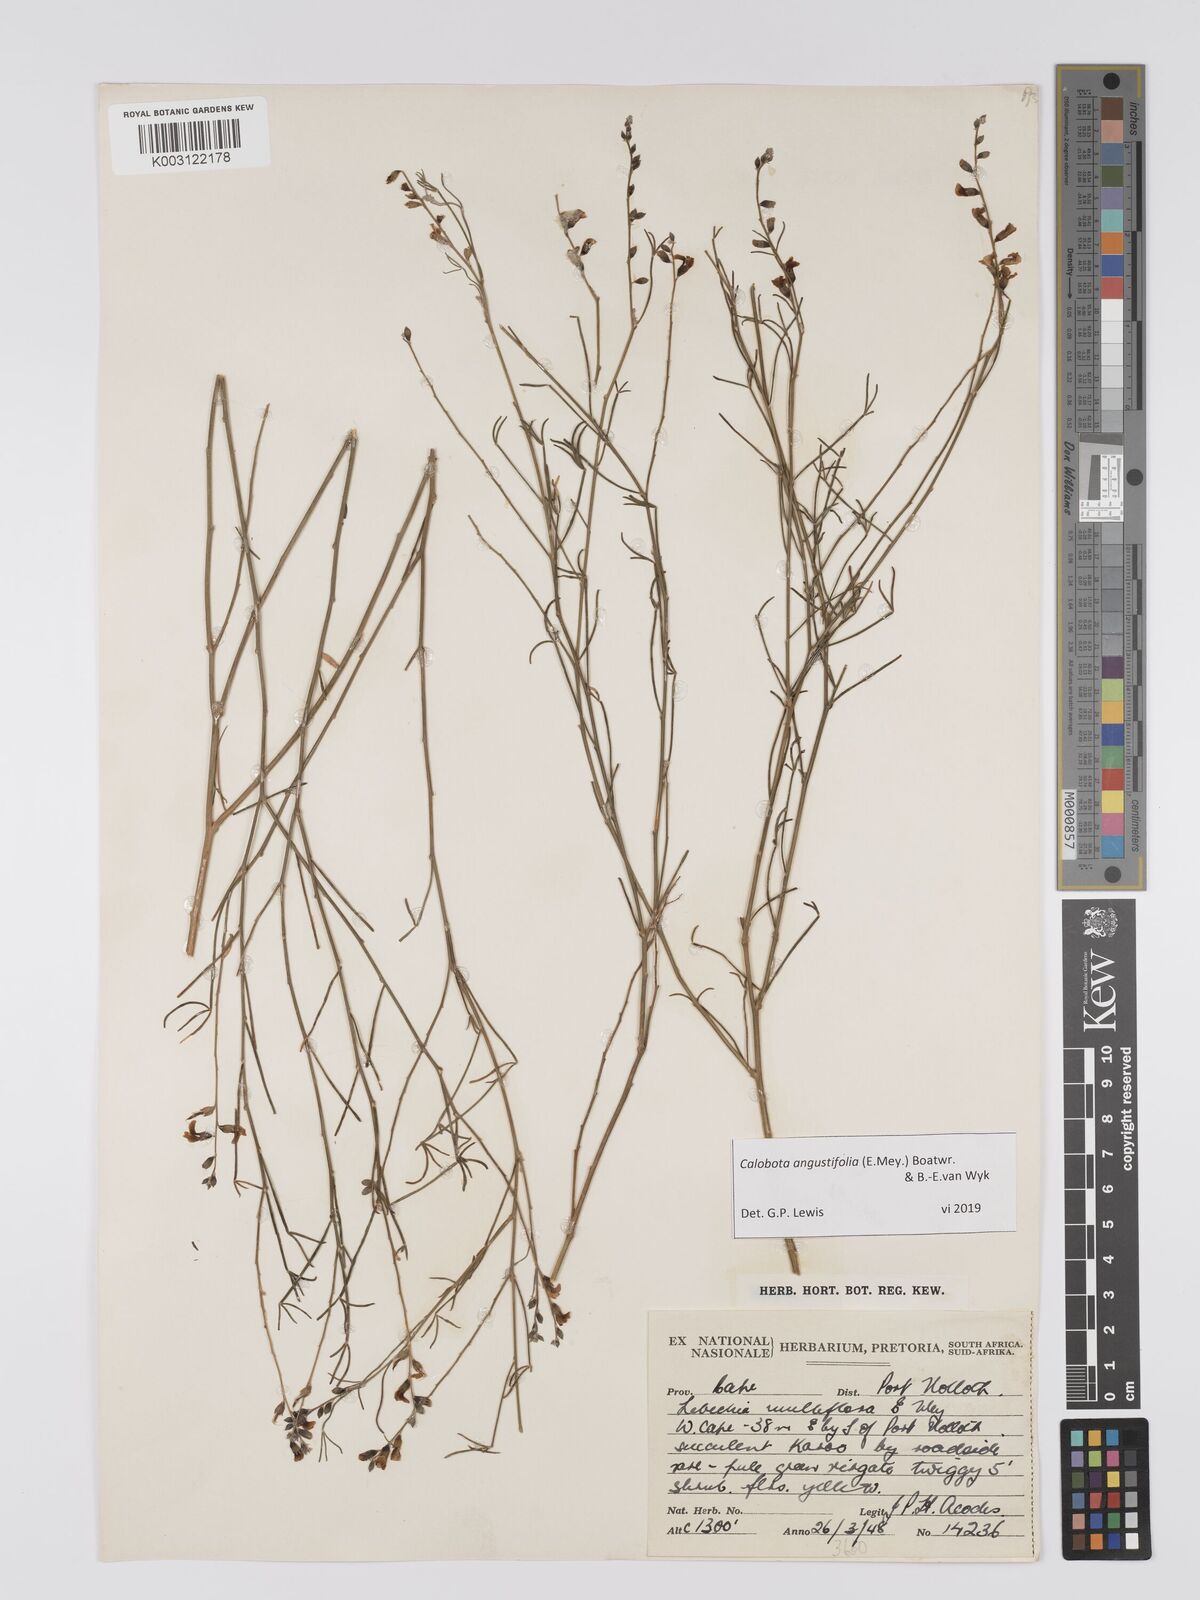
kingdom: Plantae
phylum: Tracheophyta
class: Magnoliopsida
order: Fabales
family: Fabaceae
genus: Calobota
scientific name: Calobota angustifolia
